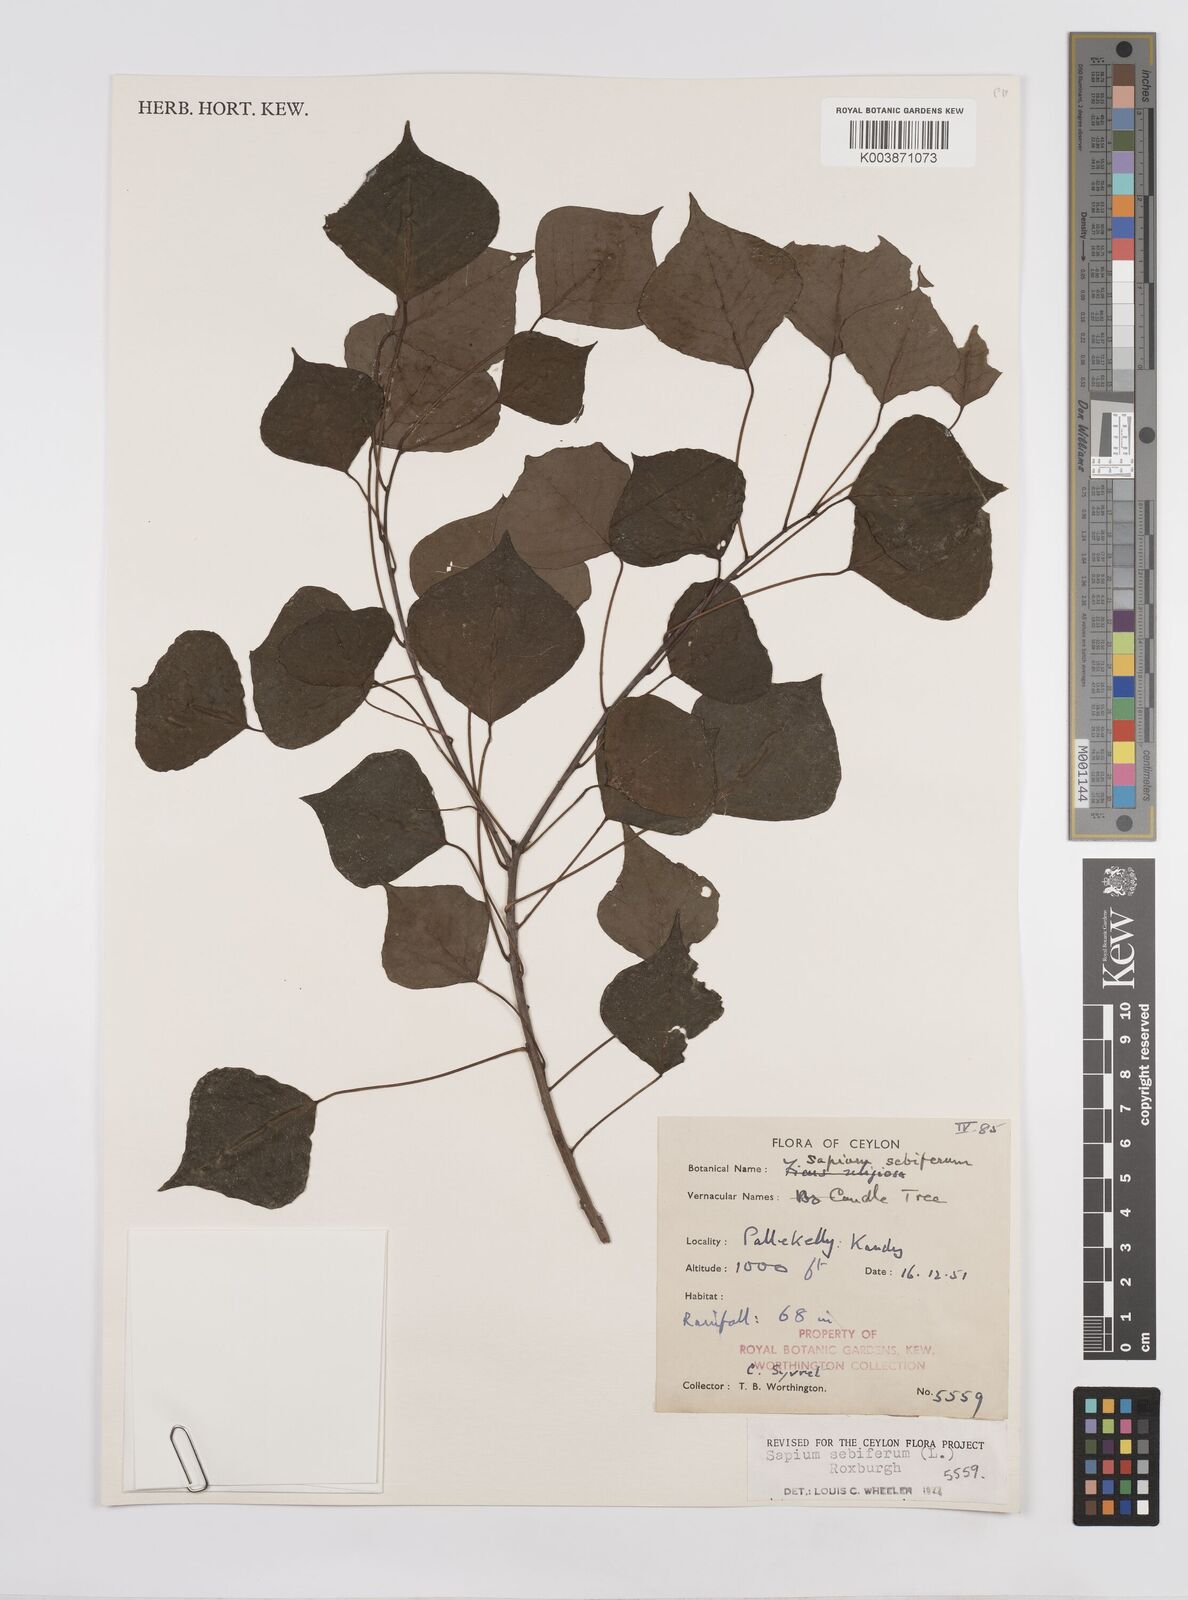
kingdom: Plantae
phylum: Tracheophyta
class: Magnoliopsida
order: Malpighiales
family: Euphorbiaceae
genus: Triadica
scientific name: Triadica sebifera
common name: Chinese tallow
